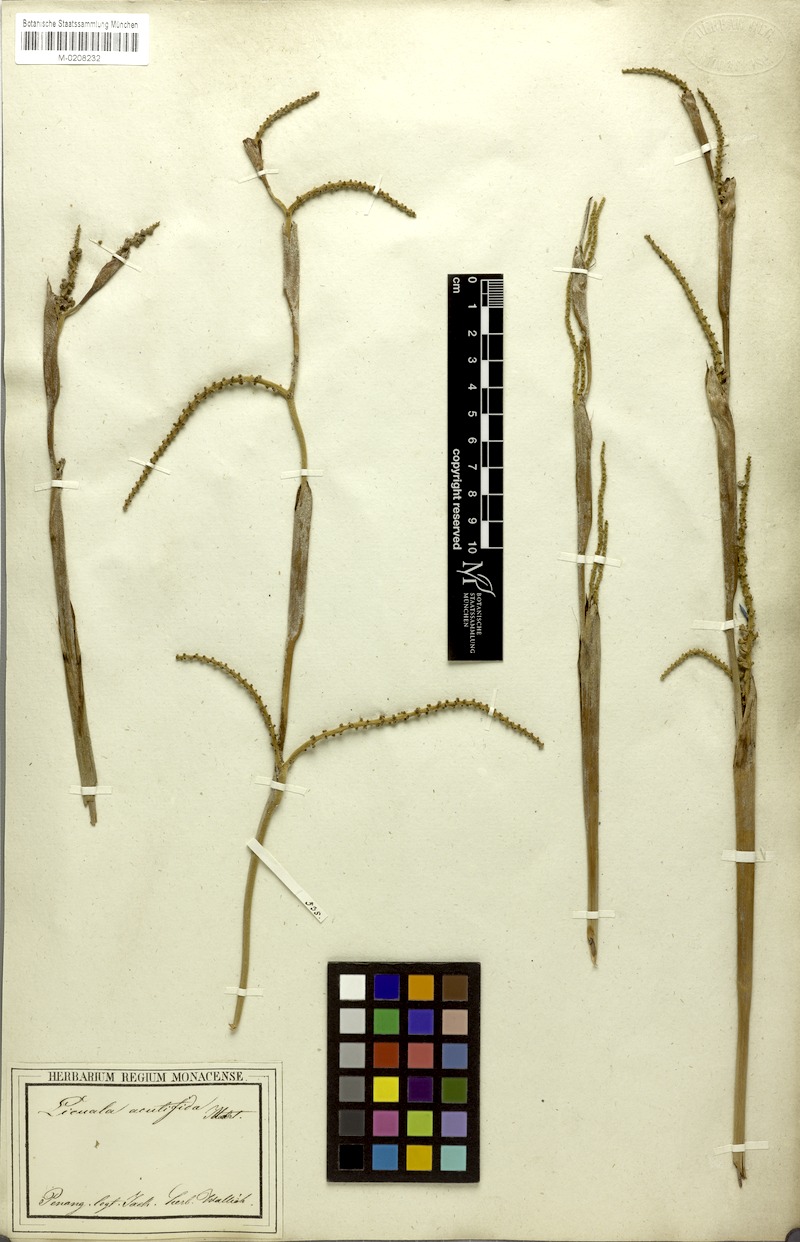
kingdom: Plantae
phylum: Tracheophyta
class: Liliopsida
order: Arecales
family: Arecaceae
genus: Licuala
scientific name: Licuala acutifida
